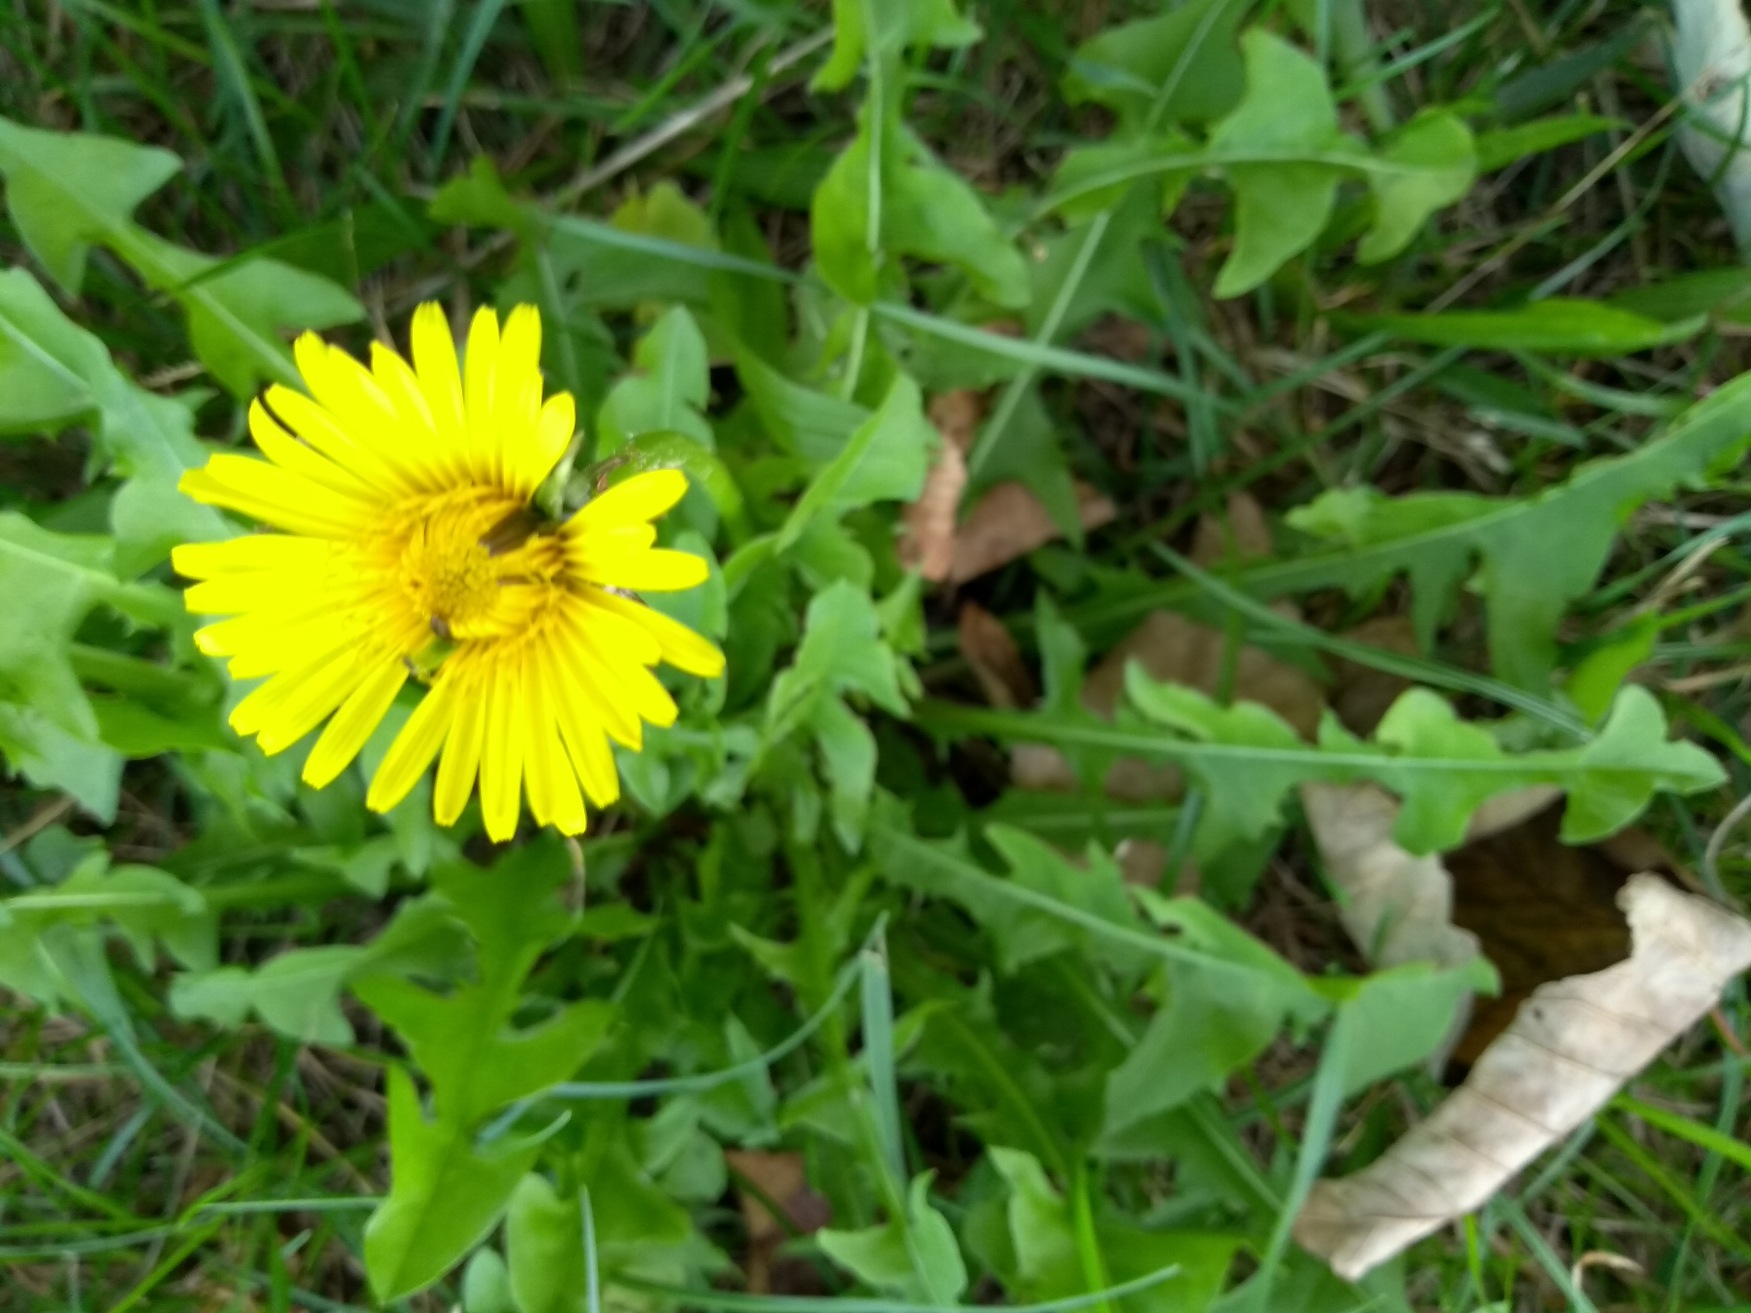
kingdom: Plantae
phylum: Tracheophyta
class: Magnoliopsida
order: Asterales
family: Asteraceae
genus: Taraxacum
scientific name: Taraxacum
